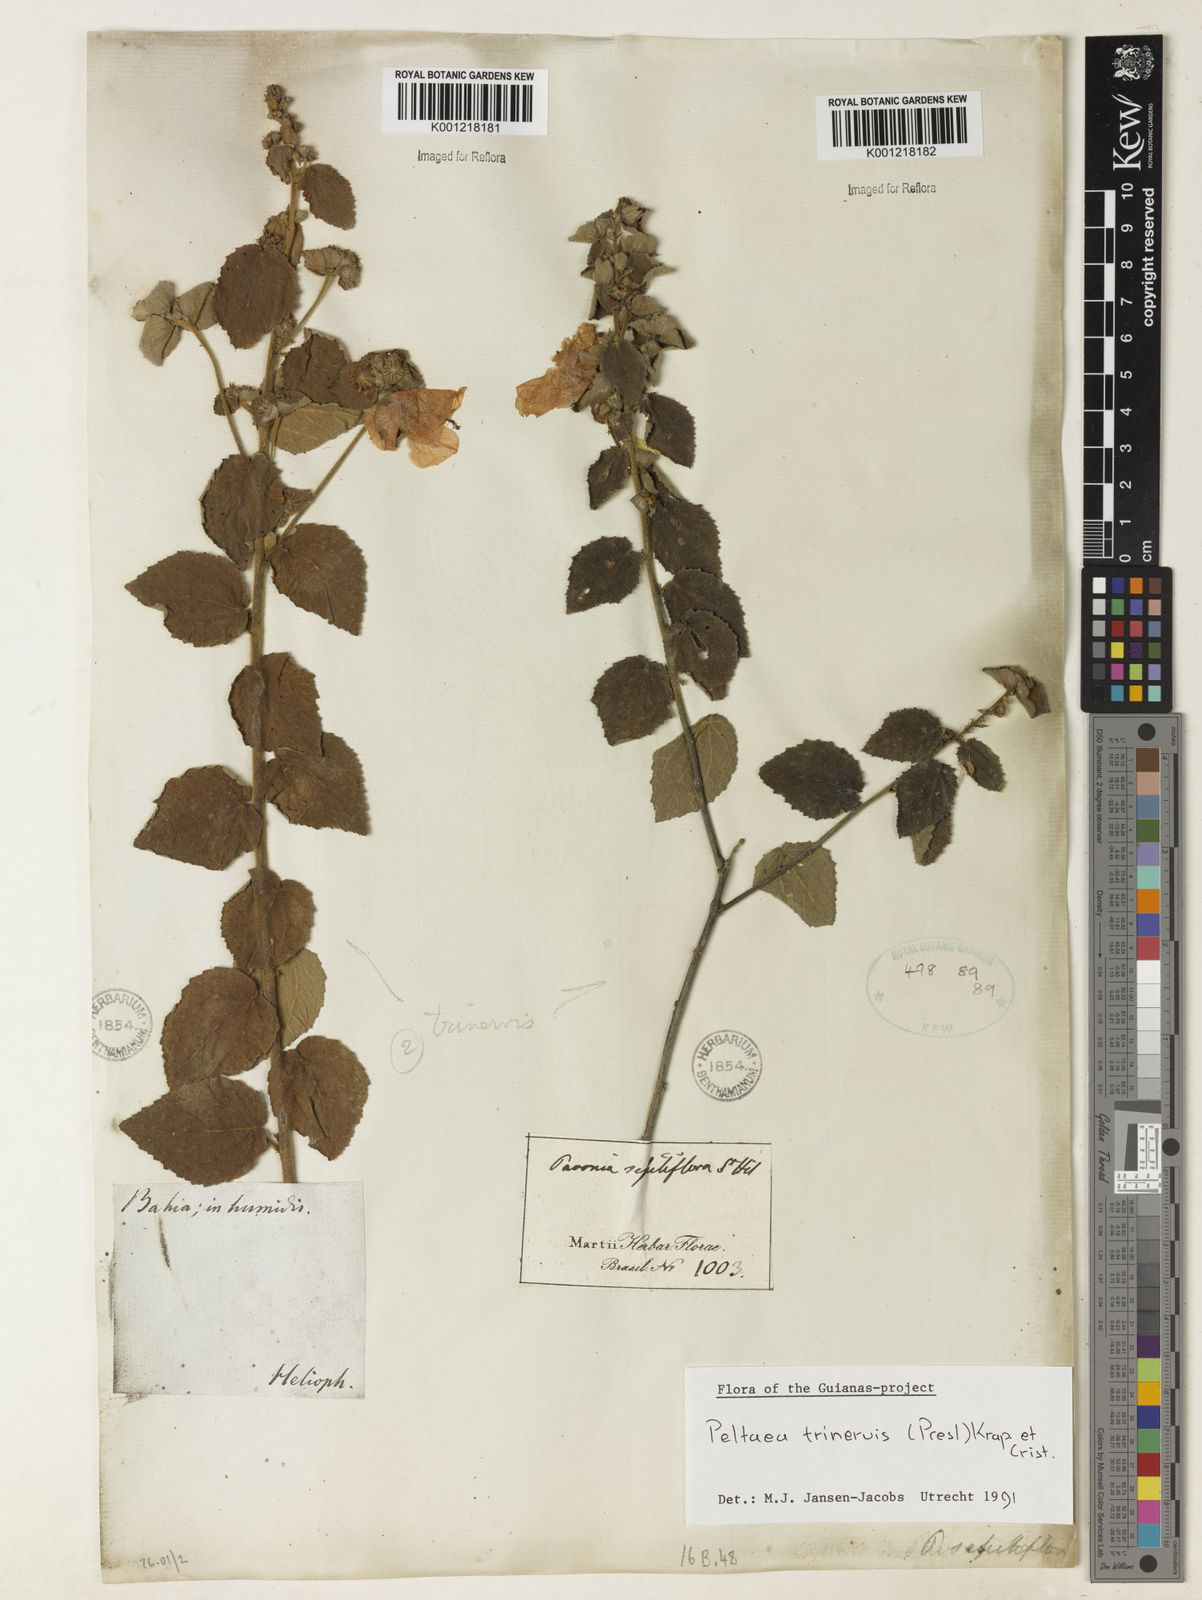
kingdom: Plantae
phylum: Tracheophyta
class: Magnoliopsida
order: Malvales
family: Malvaceae
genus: Peltaea
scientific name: Peltaea
